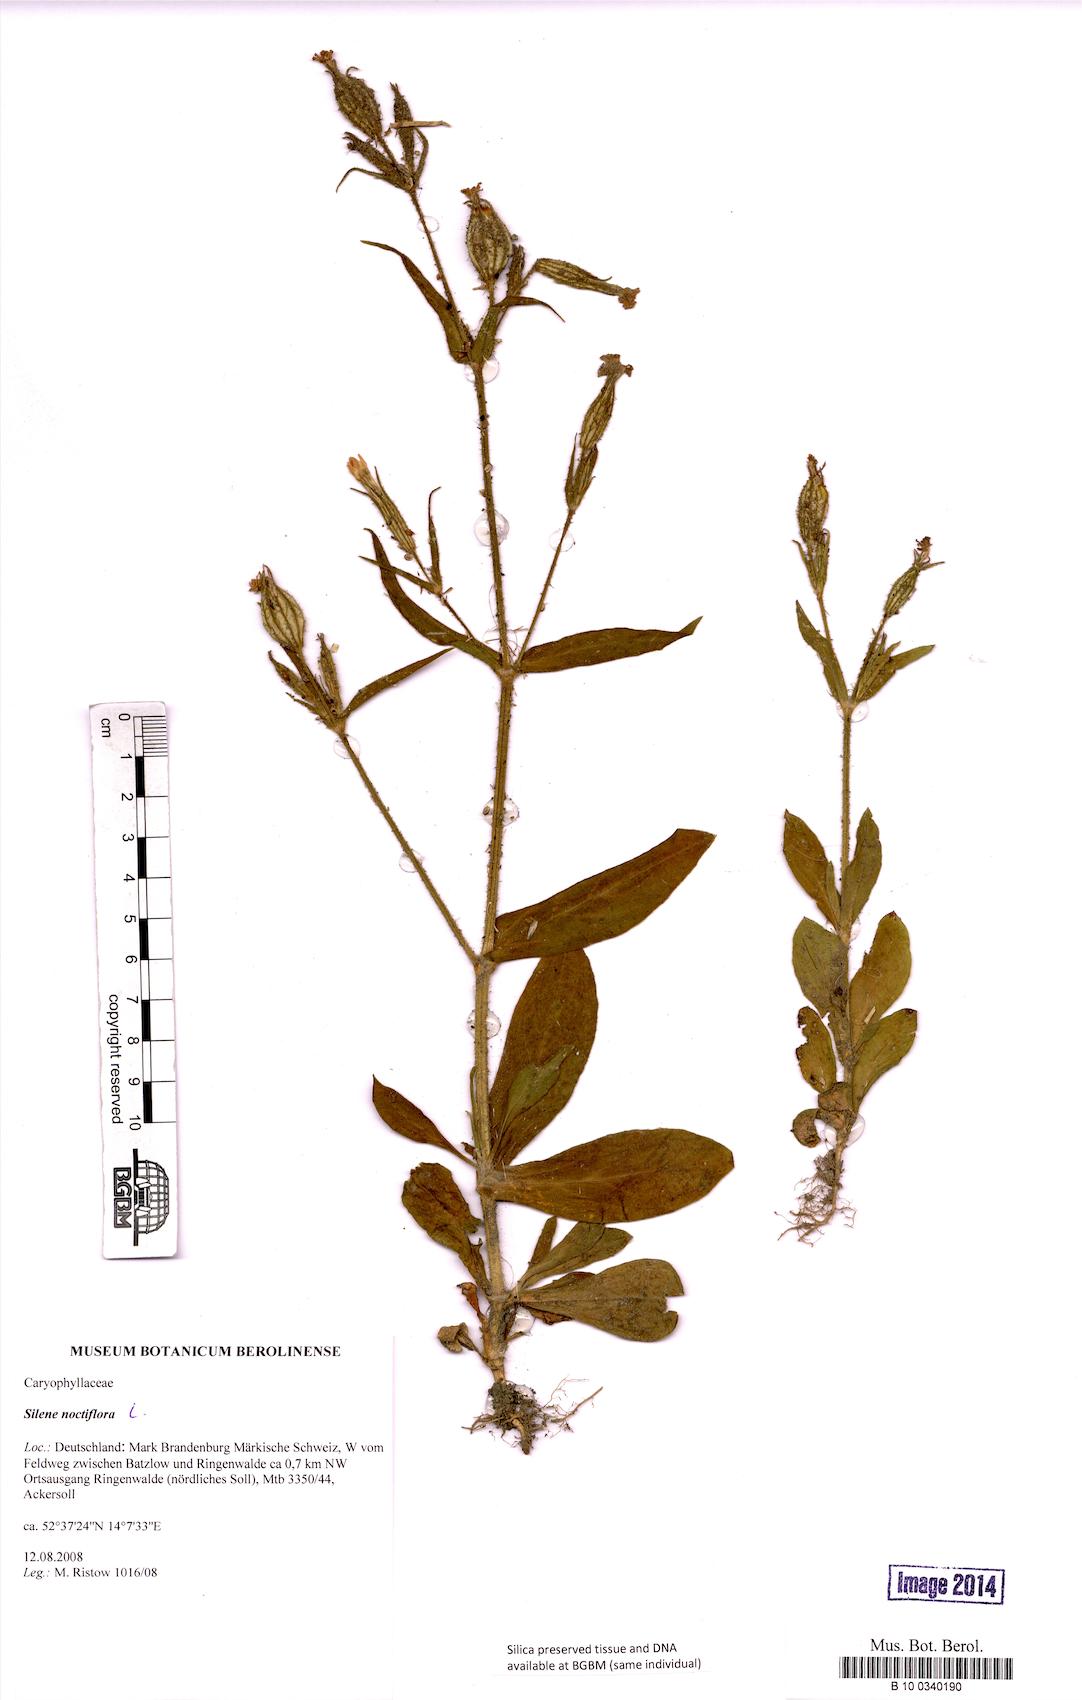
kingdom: Plantae
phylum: Tracheophyta
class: Magnoliopsida
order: Caryophyllales
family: Caryophyllaceae
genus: Silene
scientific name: Silene noctiflora
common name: Night-flowering catchfly
